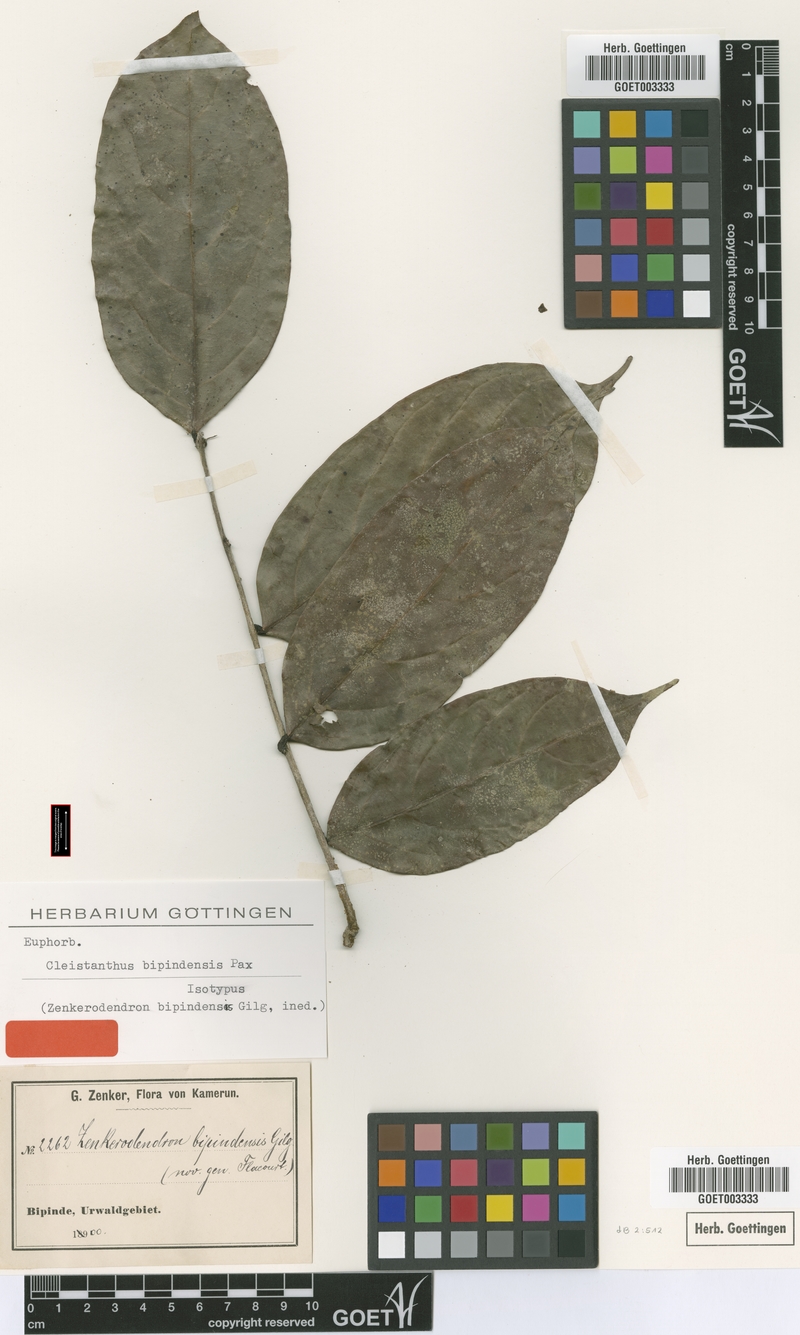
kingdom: Plantae
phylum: Tracheophyta
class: Magnoliopsida
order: Malpighiales
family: Phyllanthaceae
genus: Cleistanthus
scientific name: Cleistanthus bipindensis
